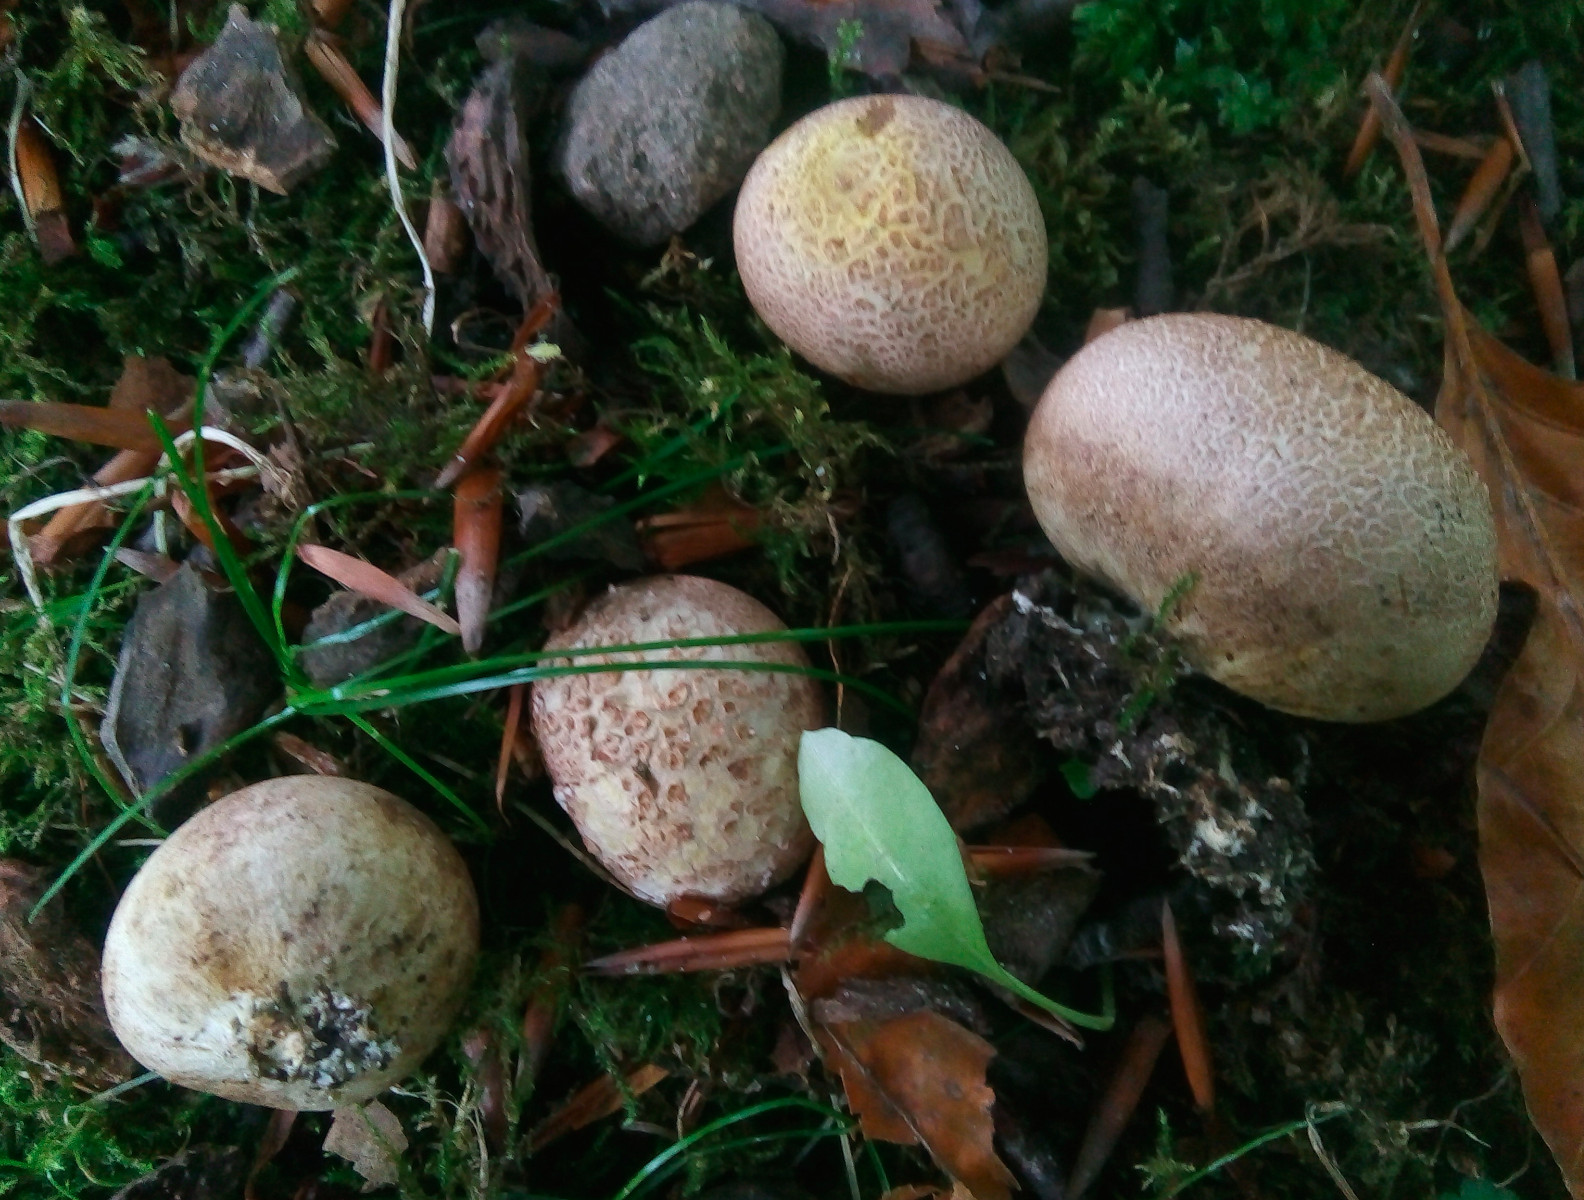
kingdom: Fungi
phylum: Basidiomycota
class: Agaricomycetes
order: Boletales
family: Sclerodermataceae
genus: Scleroderma
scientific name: Scleroderma citrinum
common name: almindelig bruskbold
